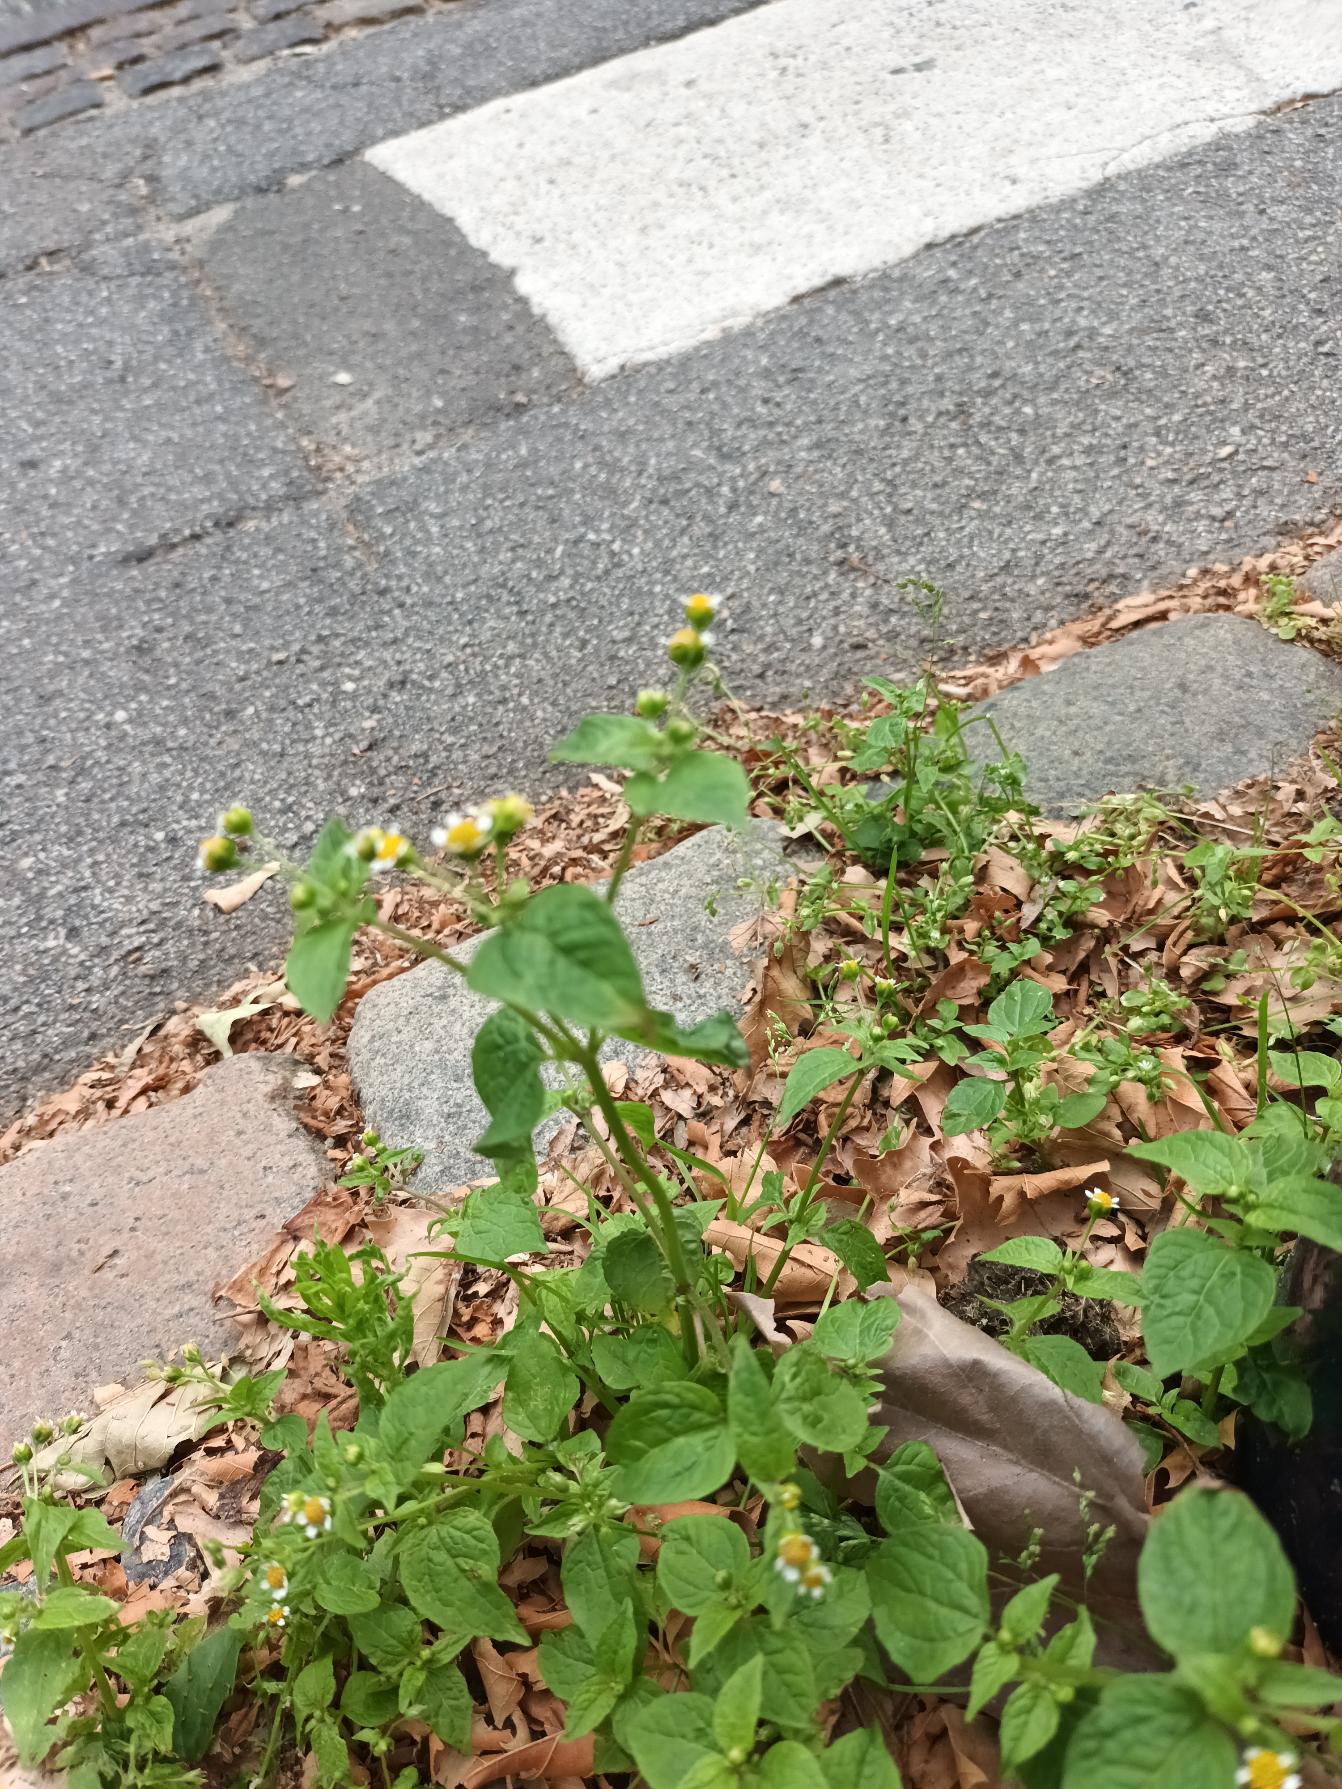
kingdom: Plantae
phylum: Tracheophyta
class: Magnoliopsida
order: Asterales
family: Asteraceae
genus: Galinsoga
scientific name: Galinsoga parviflora
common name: Håret kortstråle
